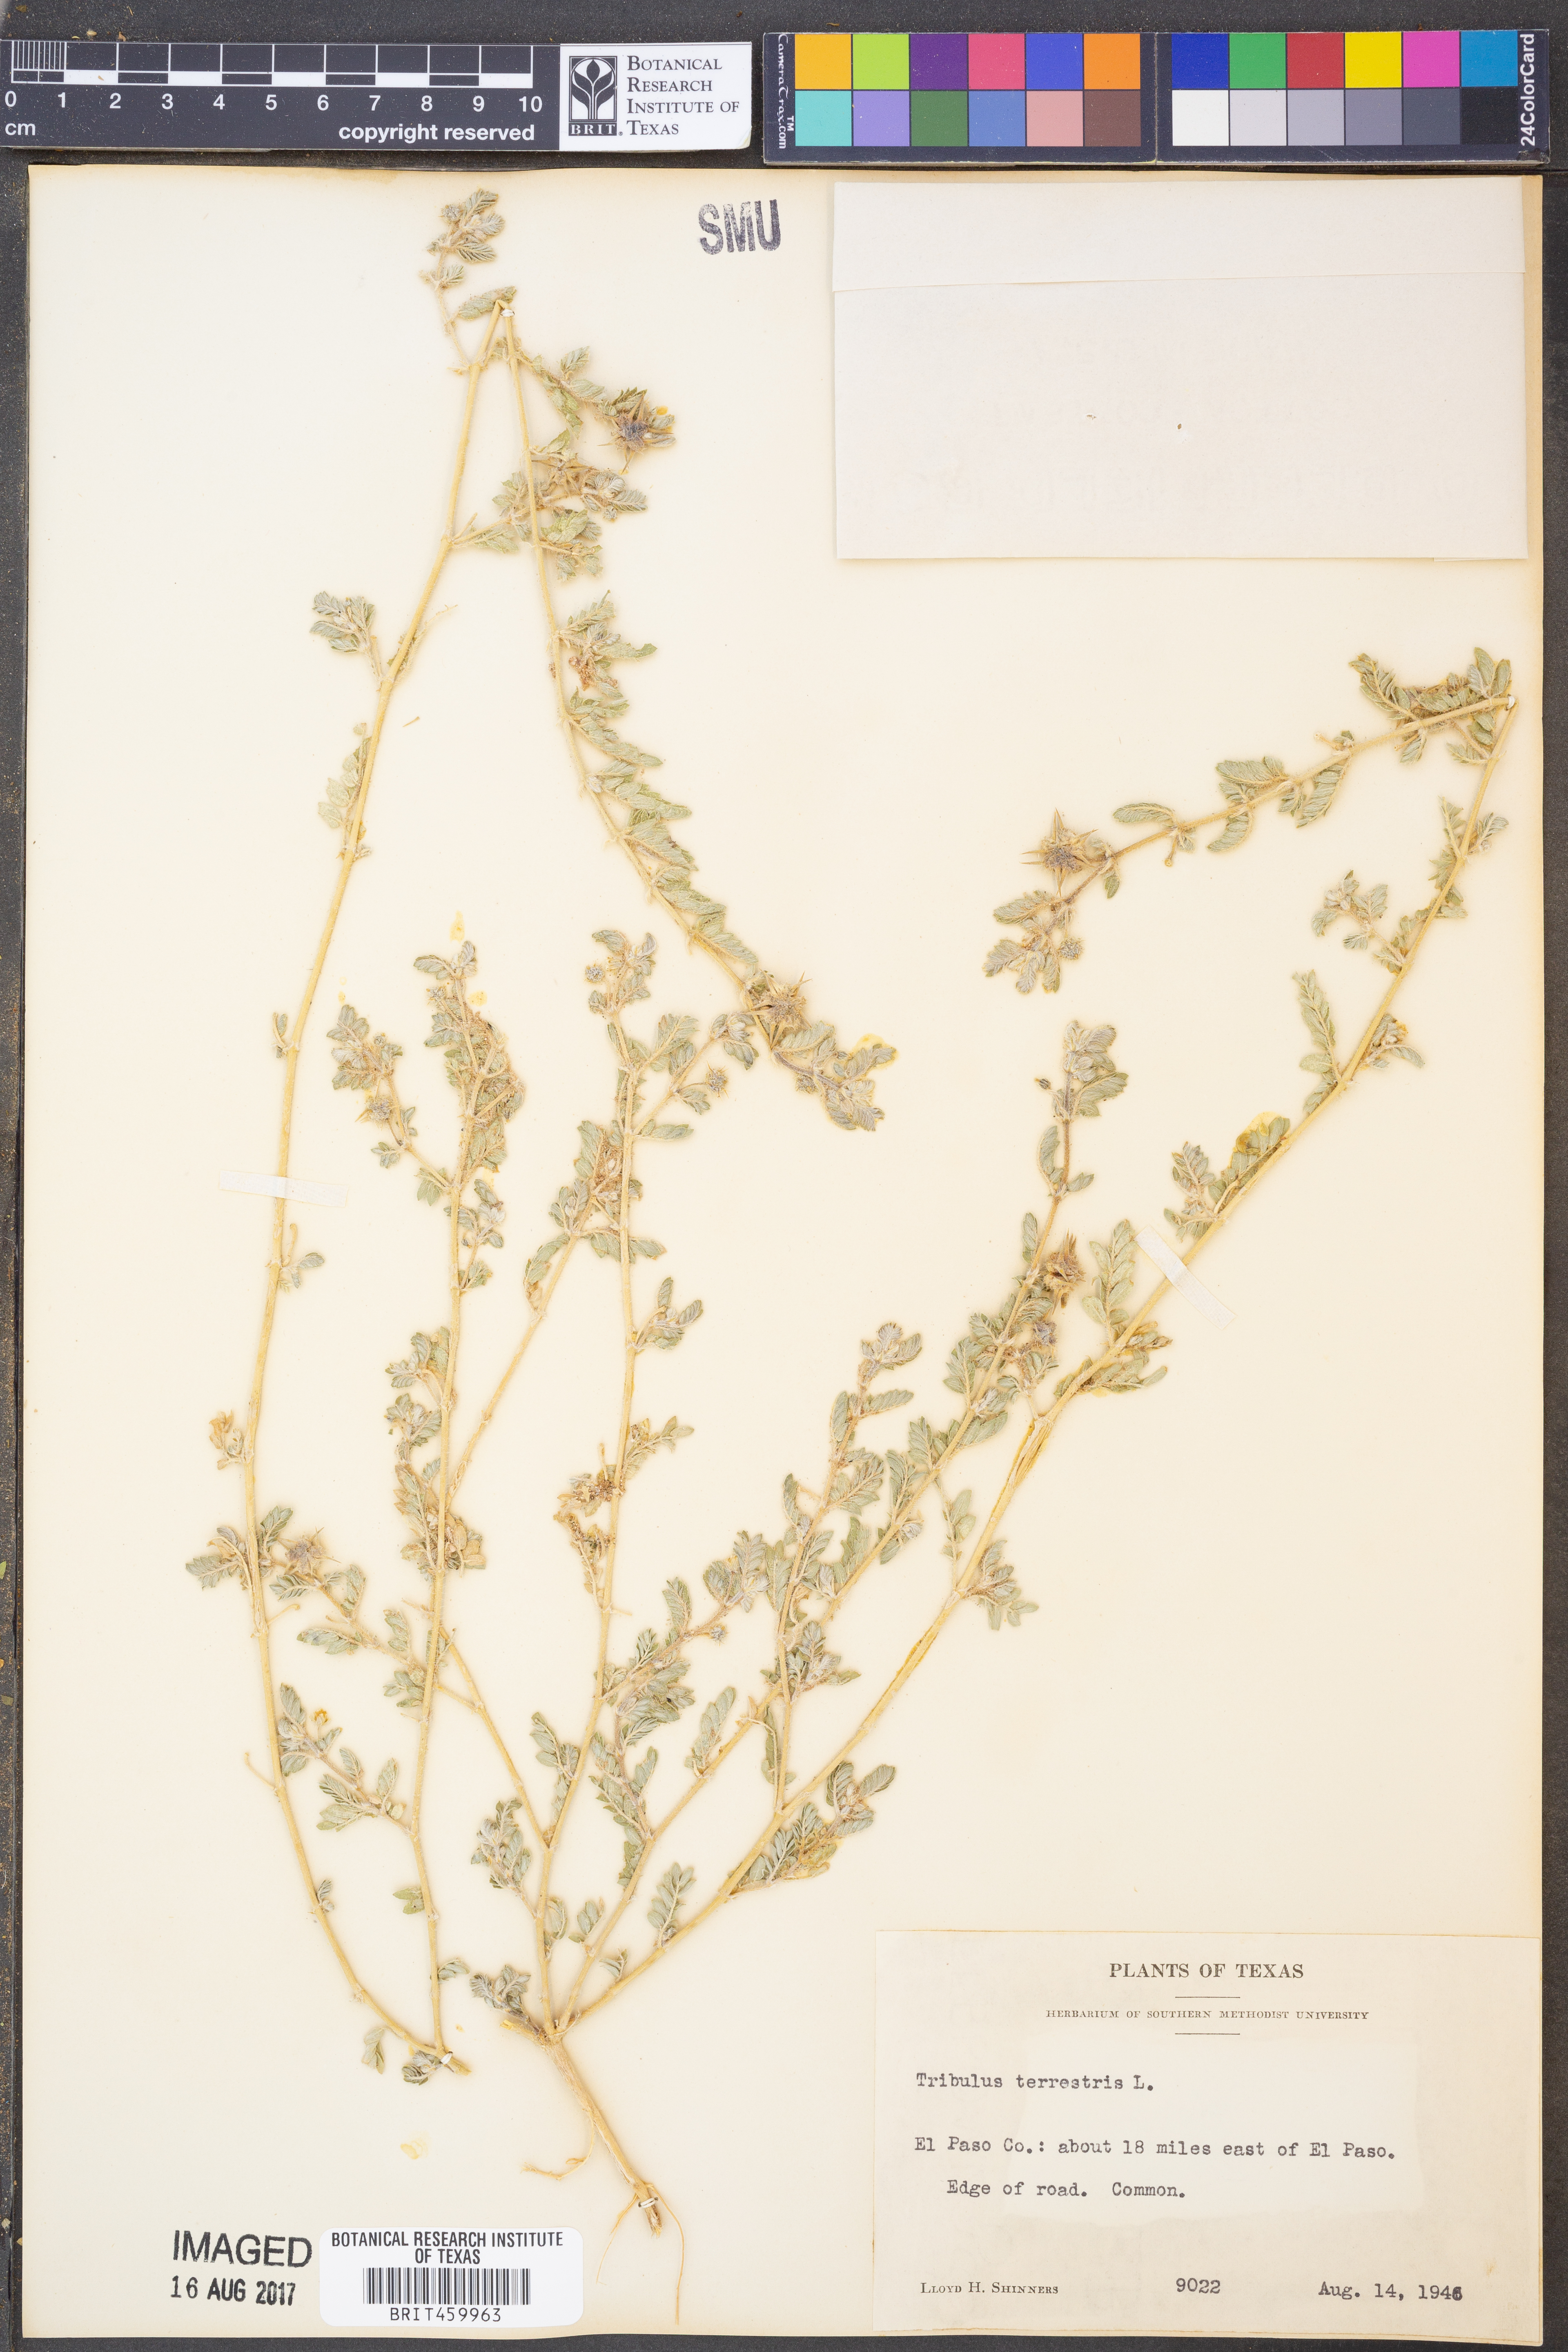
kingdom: Plantae
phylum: Tracheophyta
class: Magnoliopsida
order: Zygophyllales
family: Zygophyllaceae
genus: Tribulus
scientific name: Tribulus terrestris
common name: Puncturevine
